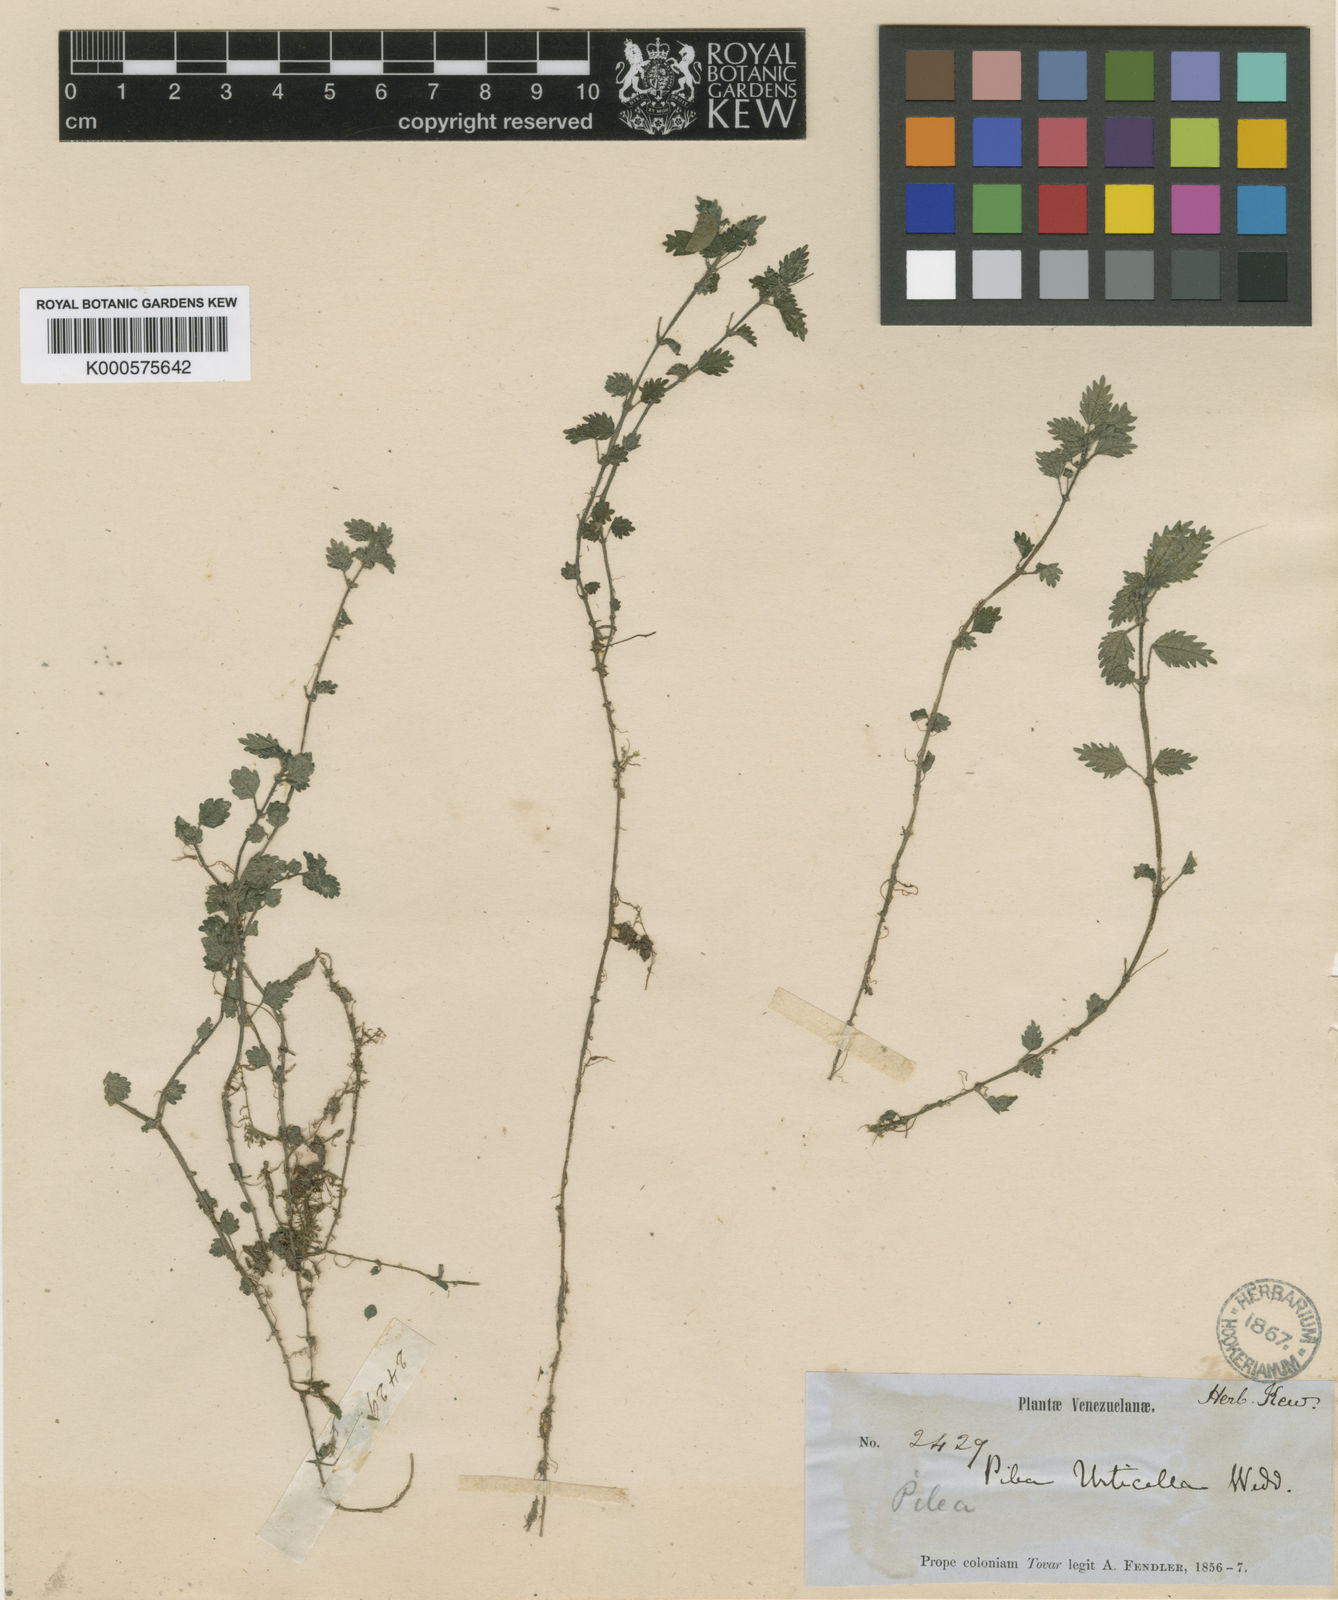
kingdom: Plantae
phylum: Tracheophyta
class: Magnoliopsida
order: Rosales
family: Urticaceae
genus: Pilea
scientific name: Pilea urticella
